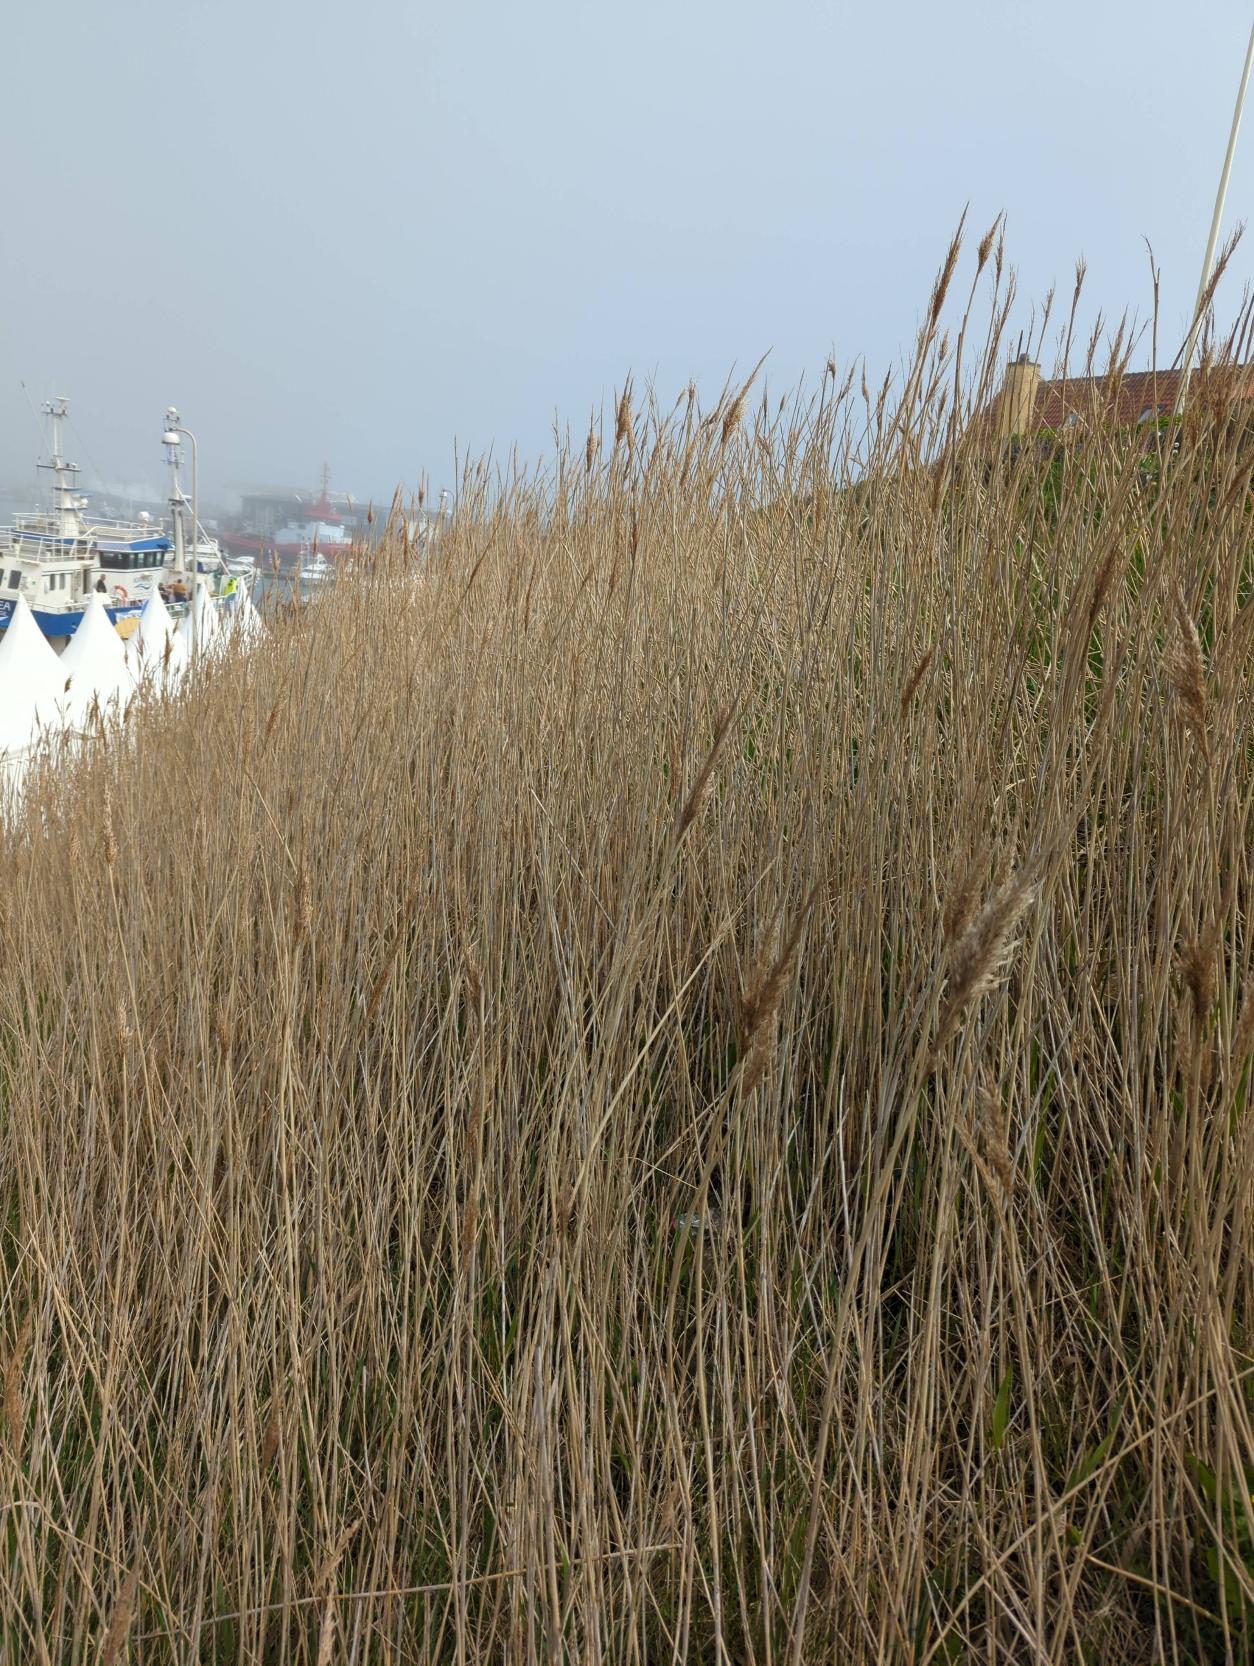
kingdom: Plantae
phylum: Tracheophyta
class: Liliopsida
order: Poales
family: Poaceae
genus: Phragmites
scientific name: Phragmites australis
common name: Tagrør
